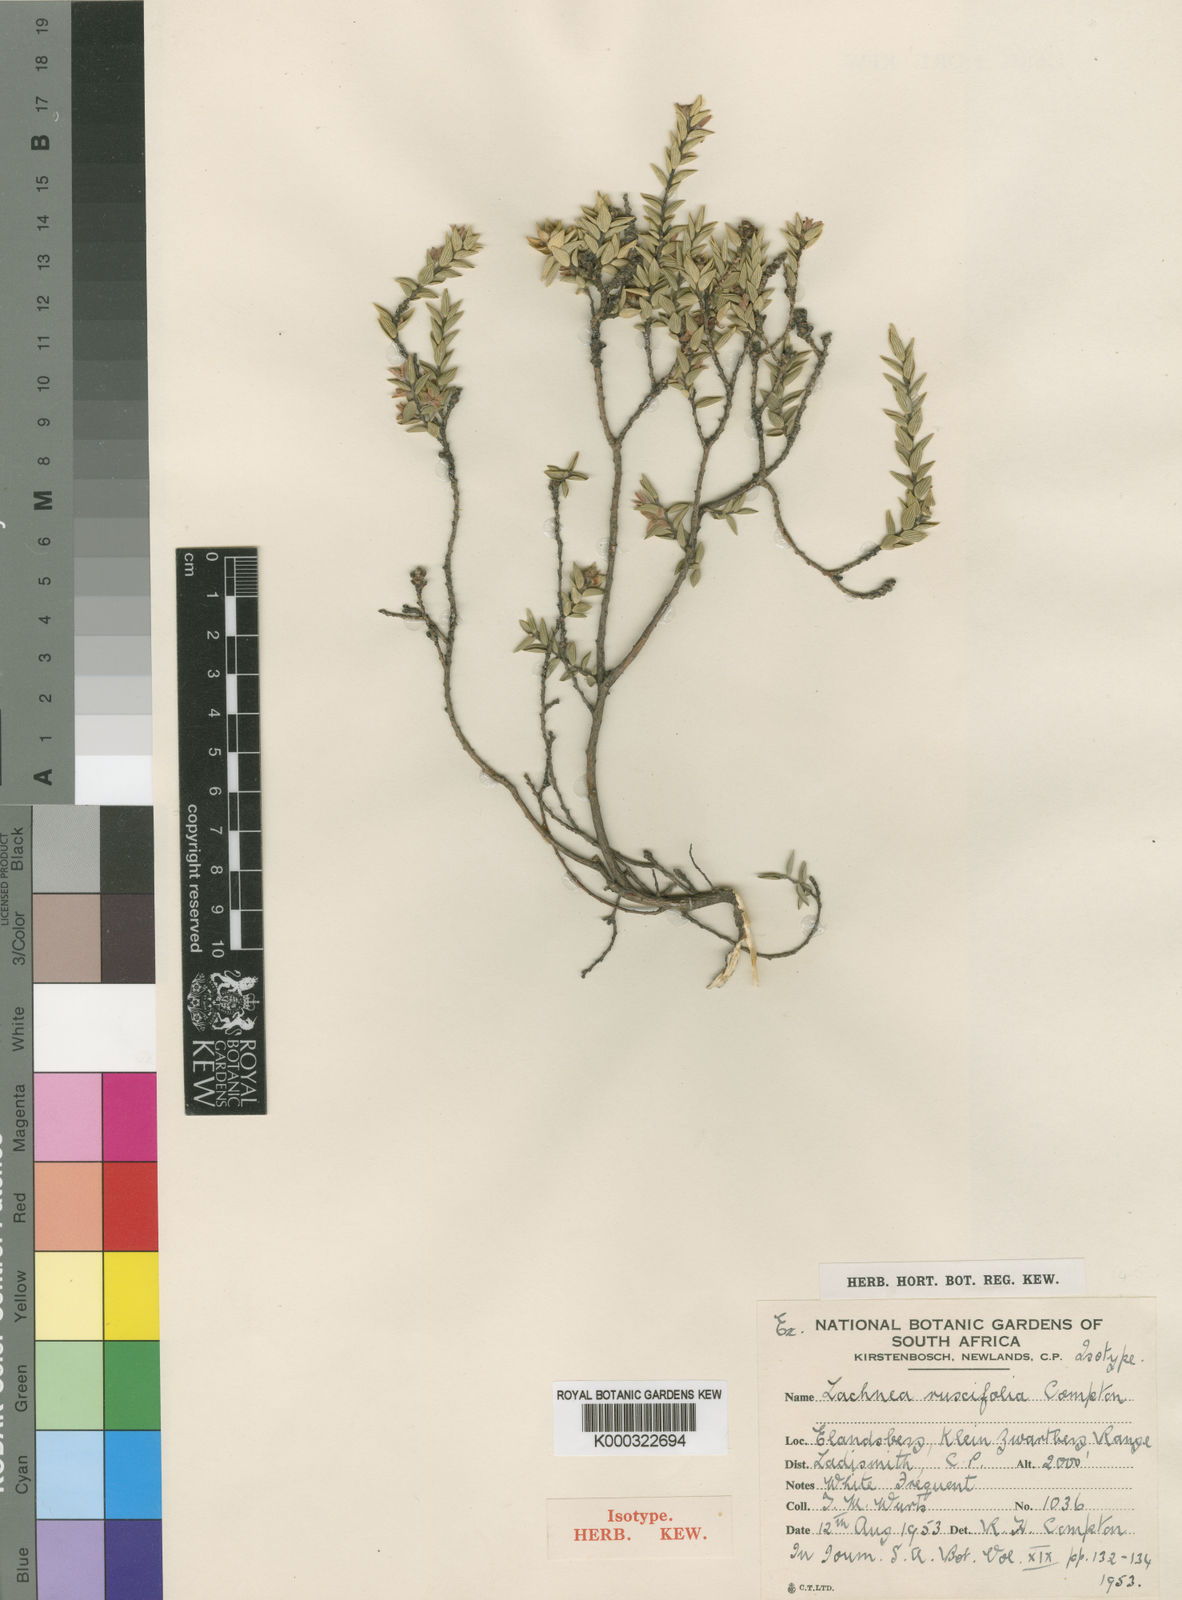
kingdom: Plantae
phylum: Tracheophyta
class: Magnoliopsida
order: Malvales
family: Thymelaeaceae
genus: Lachnaea
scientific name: Lachnaea ruscifolia
